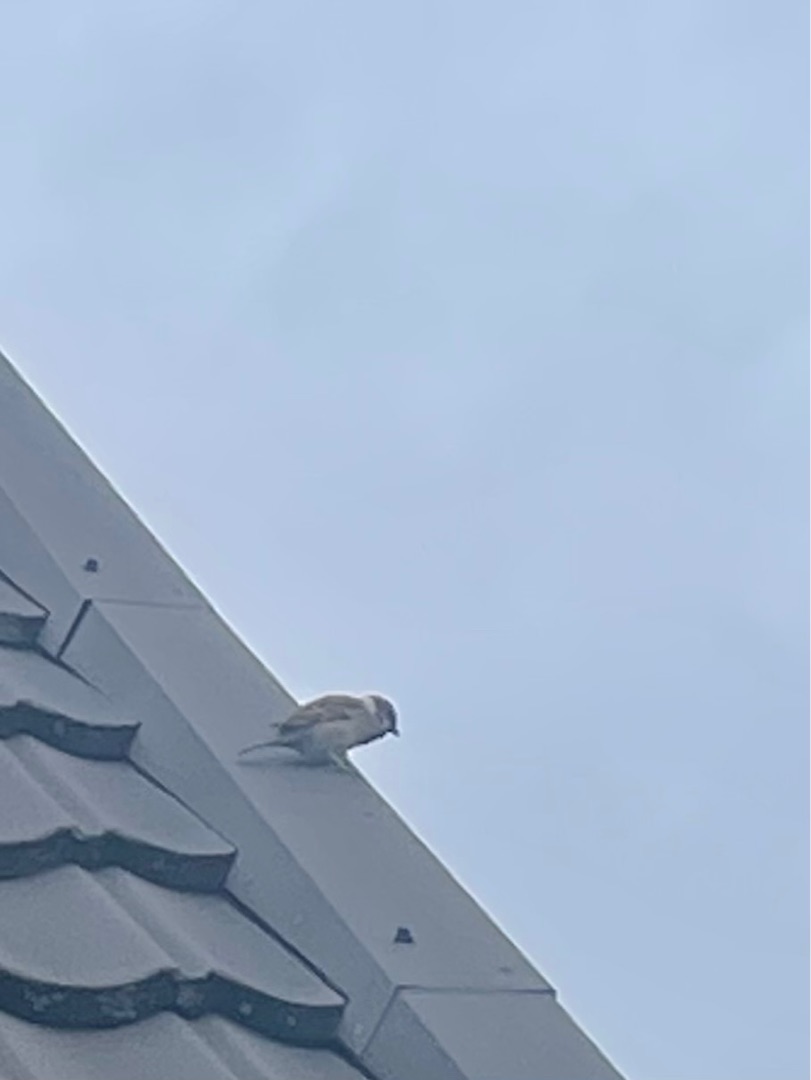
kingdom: Animalia
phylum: Chordata
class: Aves
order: Passeriformes
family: Passeridae
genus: Passer
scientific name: Passer montanus
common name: Skovspurv
